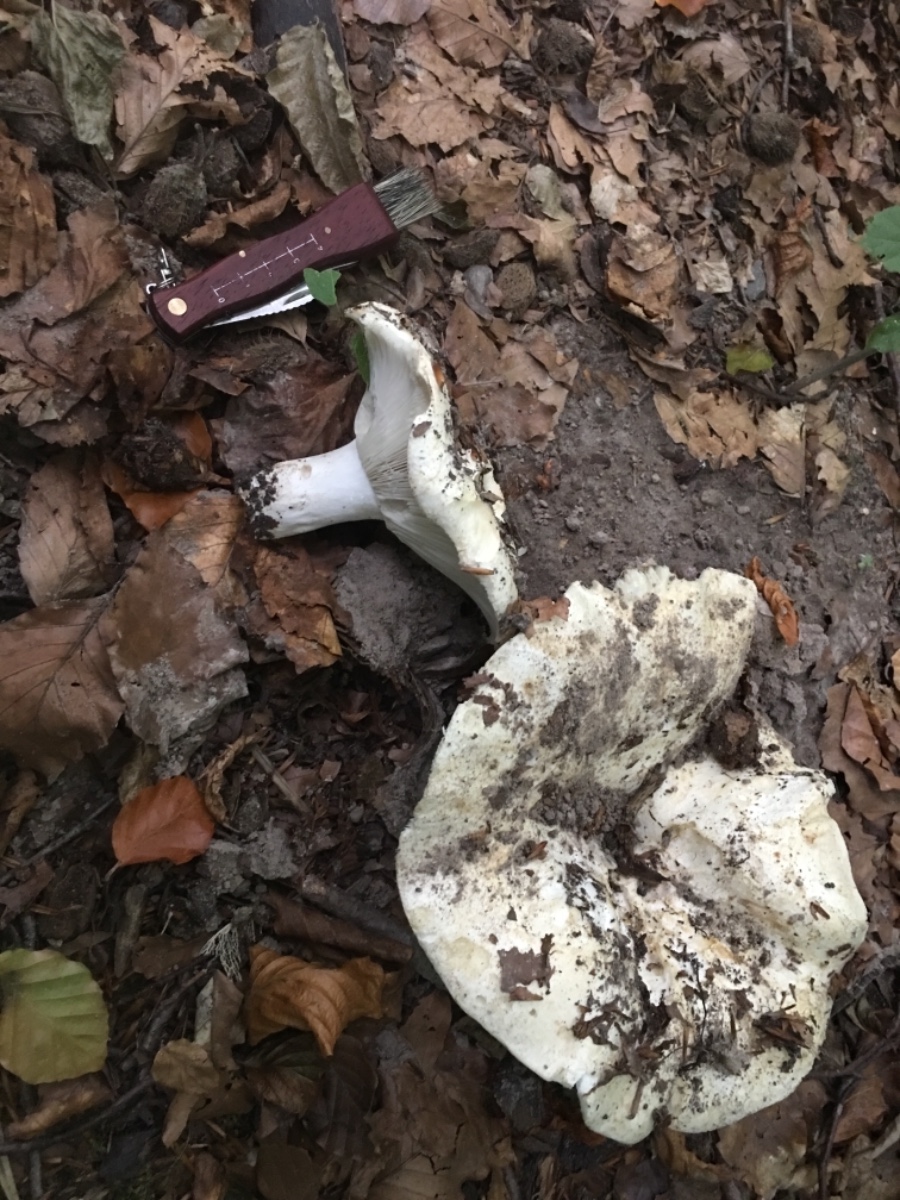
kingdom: Fungi
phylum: Basidiomycota
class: Agaricomycetes
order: Russulales
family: Russulaceae
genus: Russula
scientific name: Russula
